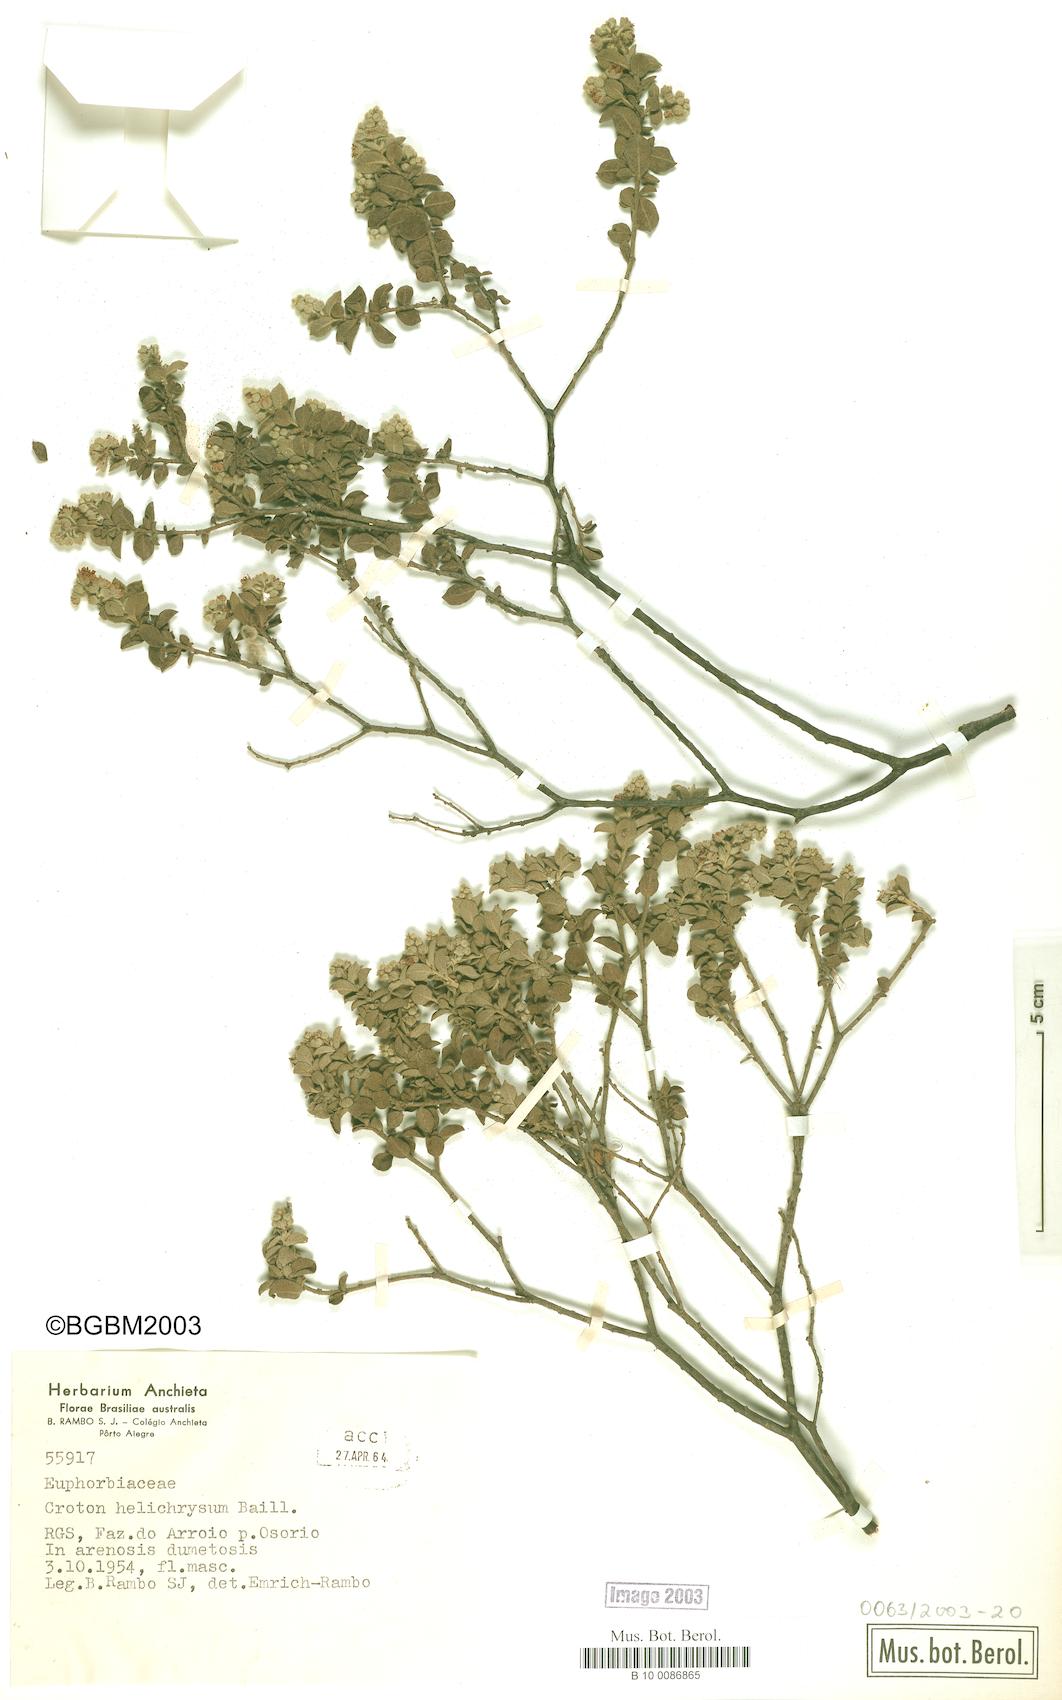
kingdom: Plantae
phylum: Tracheophyta
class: Magnoliopsida
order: Malpighiales
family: Euphorbiaceae
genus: Croton
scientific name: Croton helichrysum
